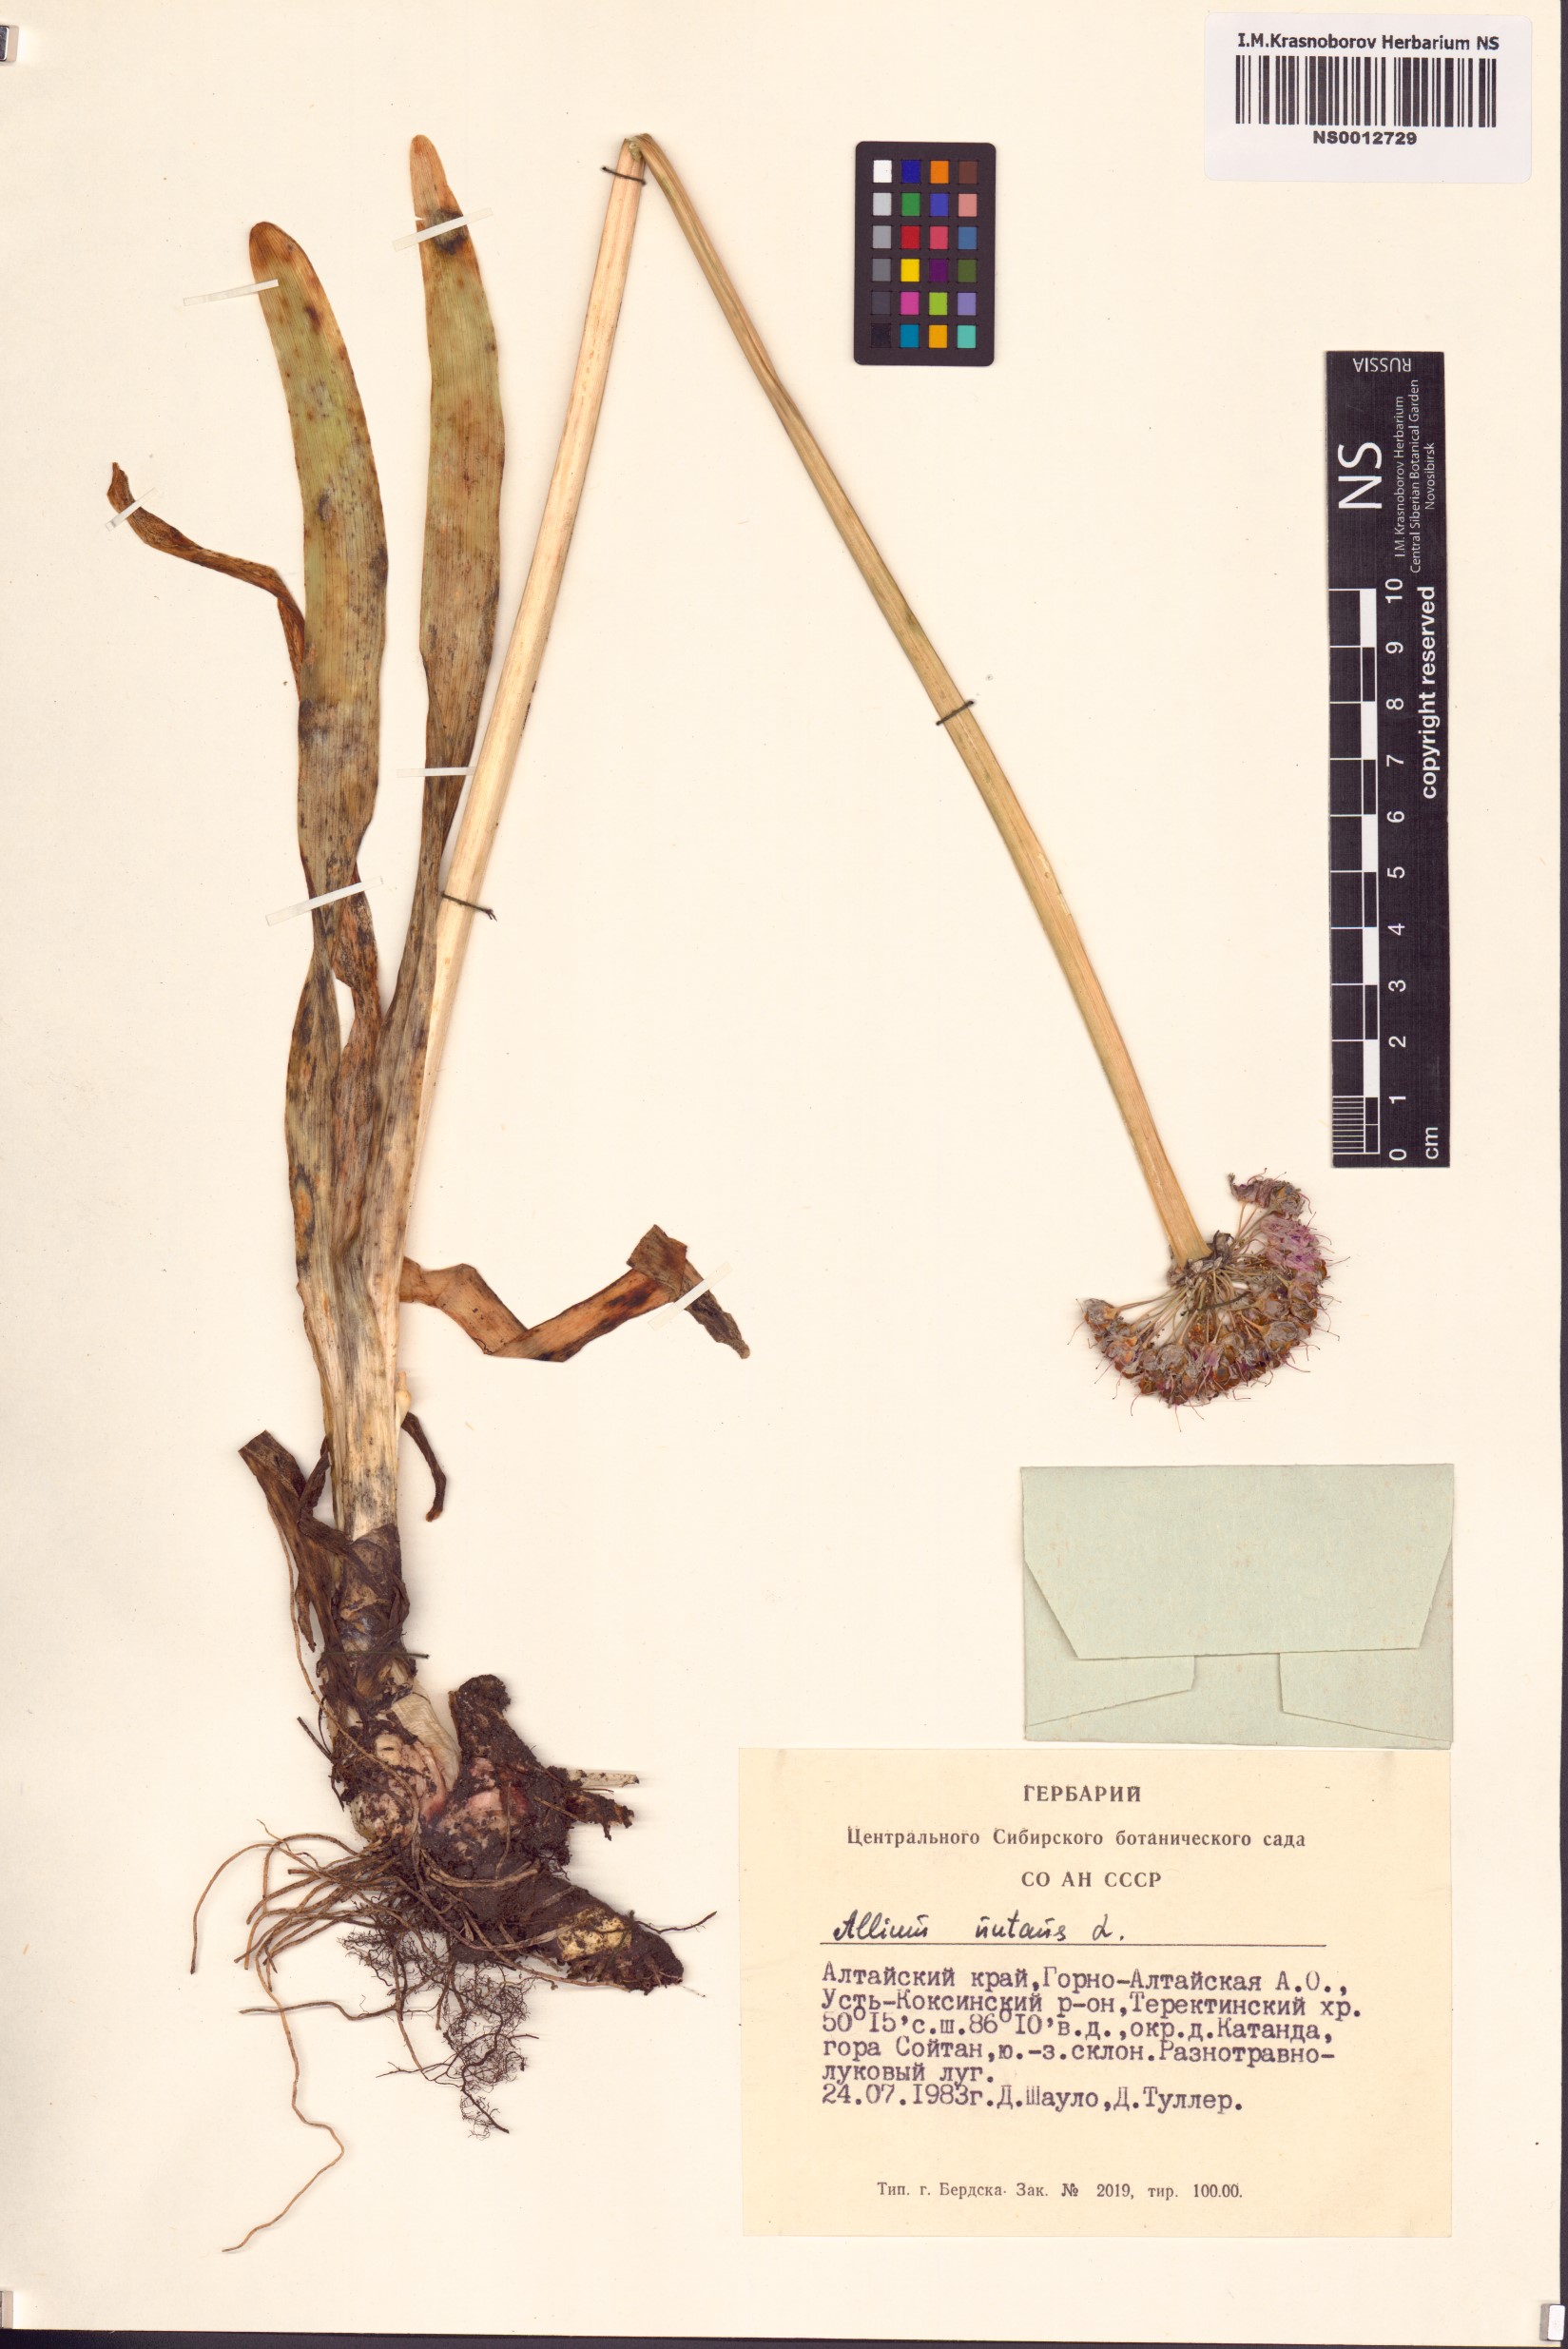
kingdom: Plantae
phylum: Tracheophyta
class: Liliopsida
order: Asparagales
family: Amaryllidaceae
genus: Allium
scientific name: Allium nutans
